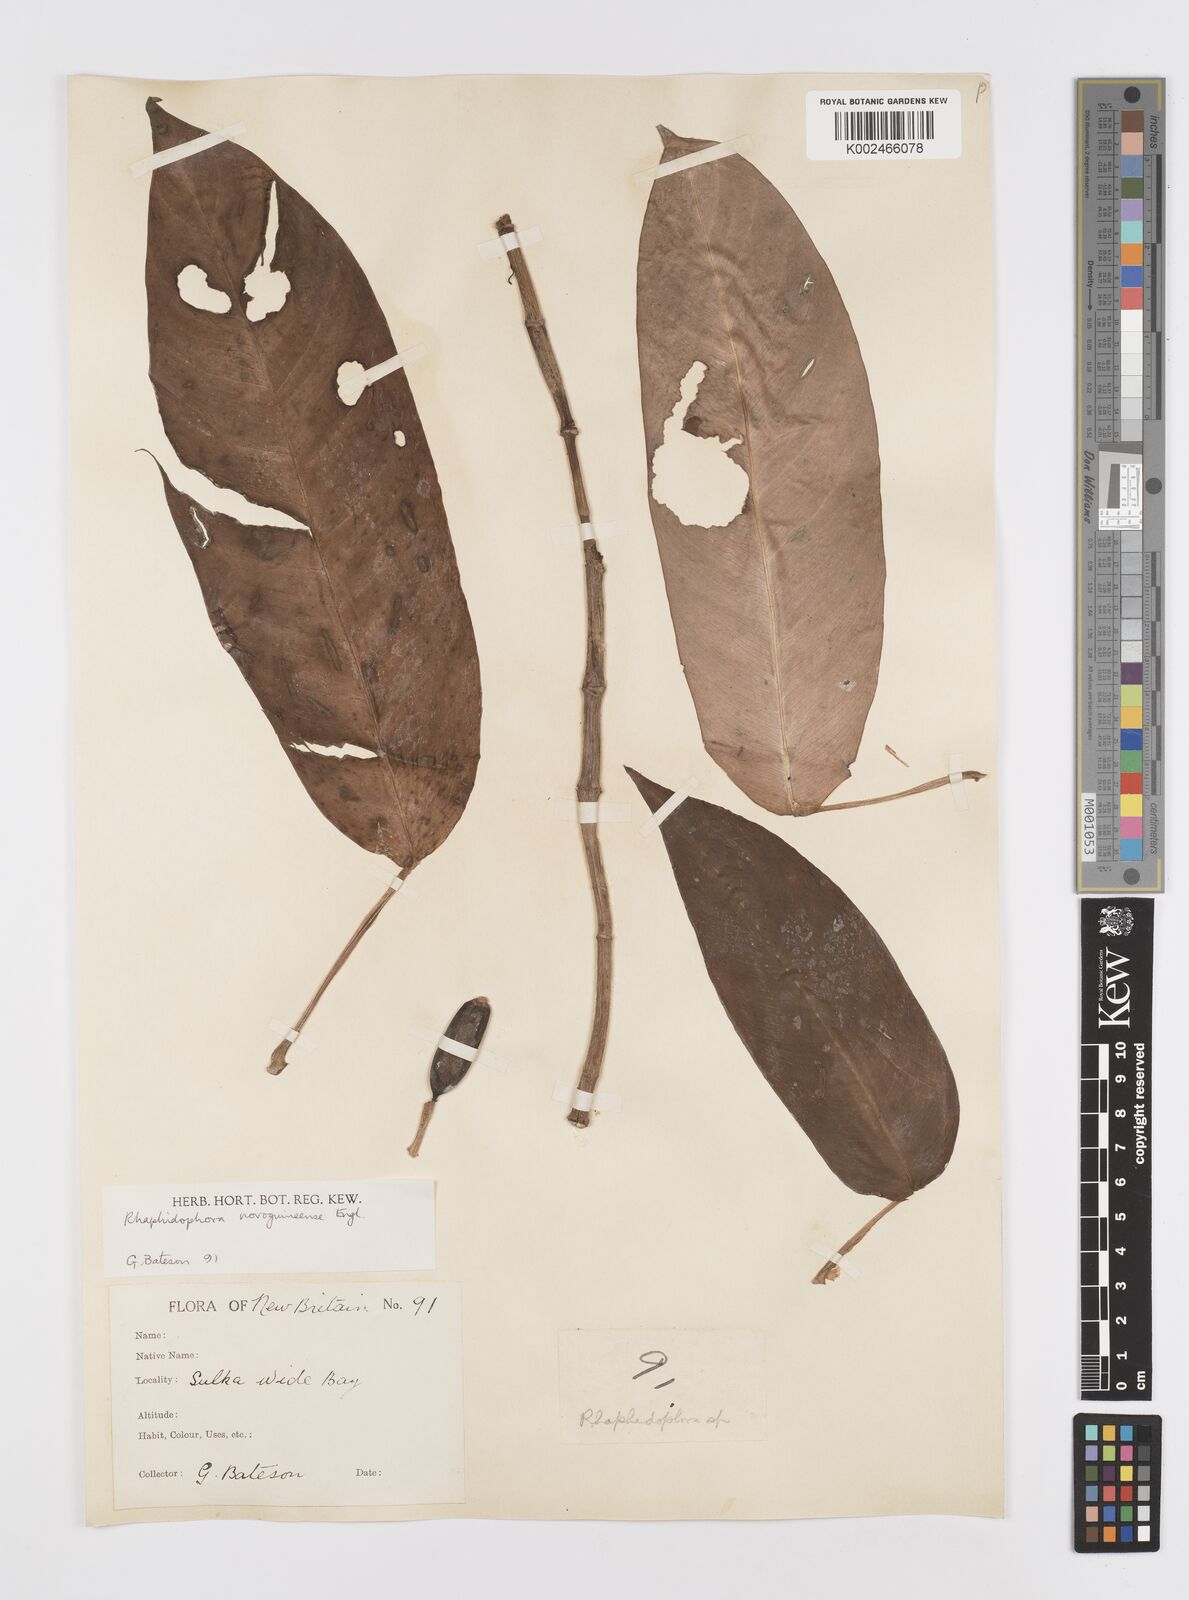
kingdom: Plantae
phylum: Tracheophyta
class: Liliopsida
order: Alismatales
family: Araceae
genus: Rhaphidophora
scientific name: Rhaphidophora mima
